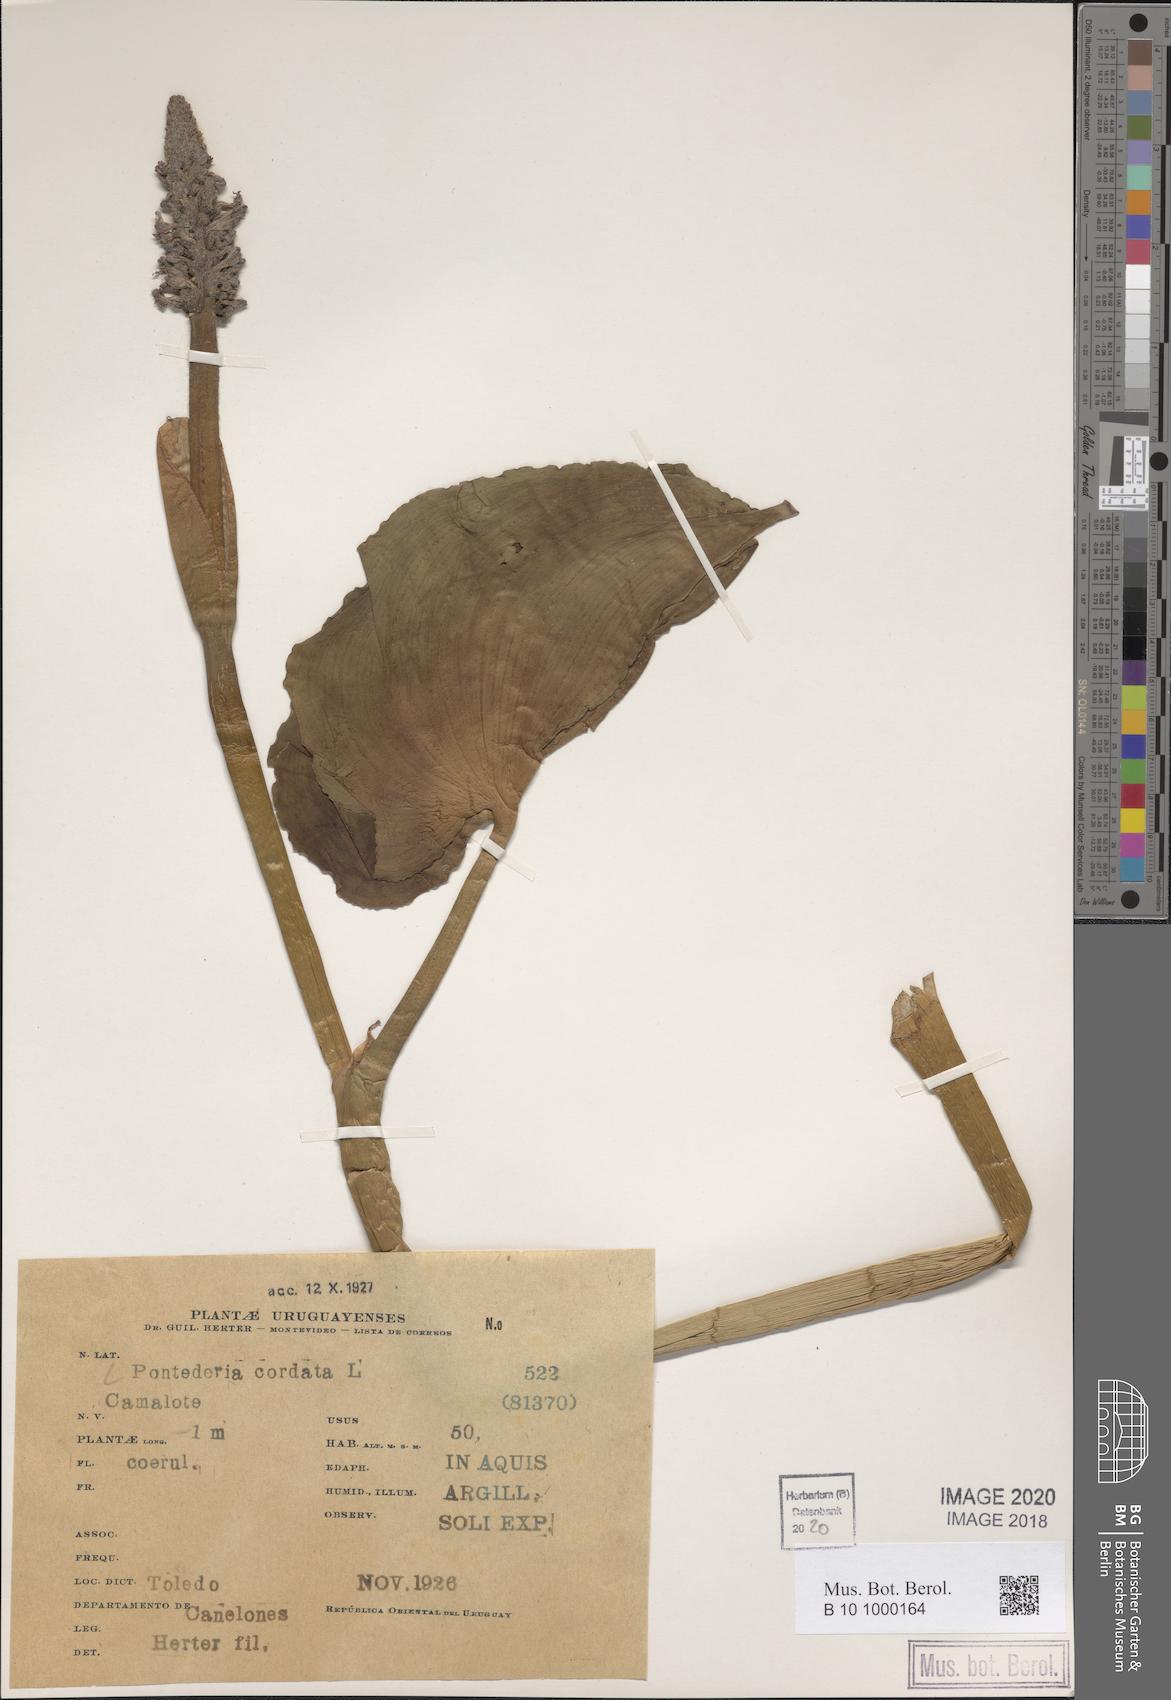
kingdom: Plantae
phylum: Tracheophyta
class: Liliopsida
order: Commelinales
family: Pontederiaceae
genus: Pontederia
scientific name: Pontederia cordata
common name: Pickerelweed
